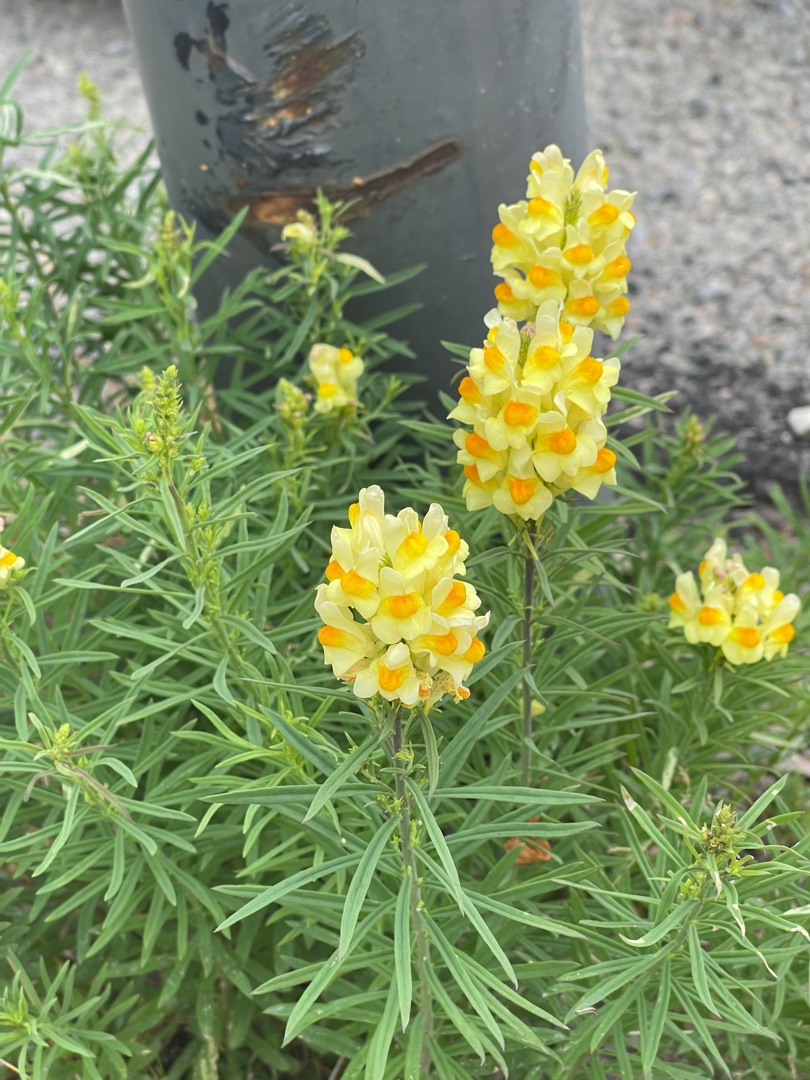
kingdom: Plantae
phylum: Tracheophyta
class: Magnoliopsida
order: Lamiales
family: Plantaginaceae
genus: Linaria
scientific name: Linaria vulgaris
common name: Almindelig torskemund
